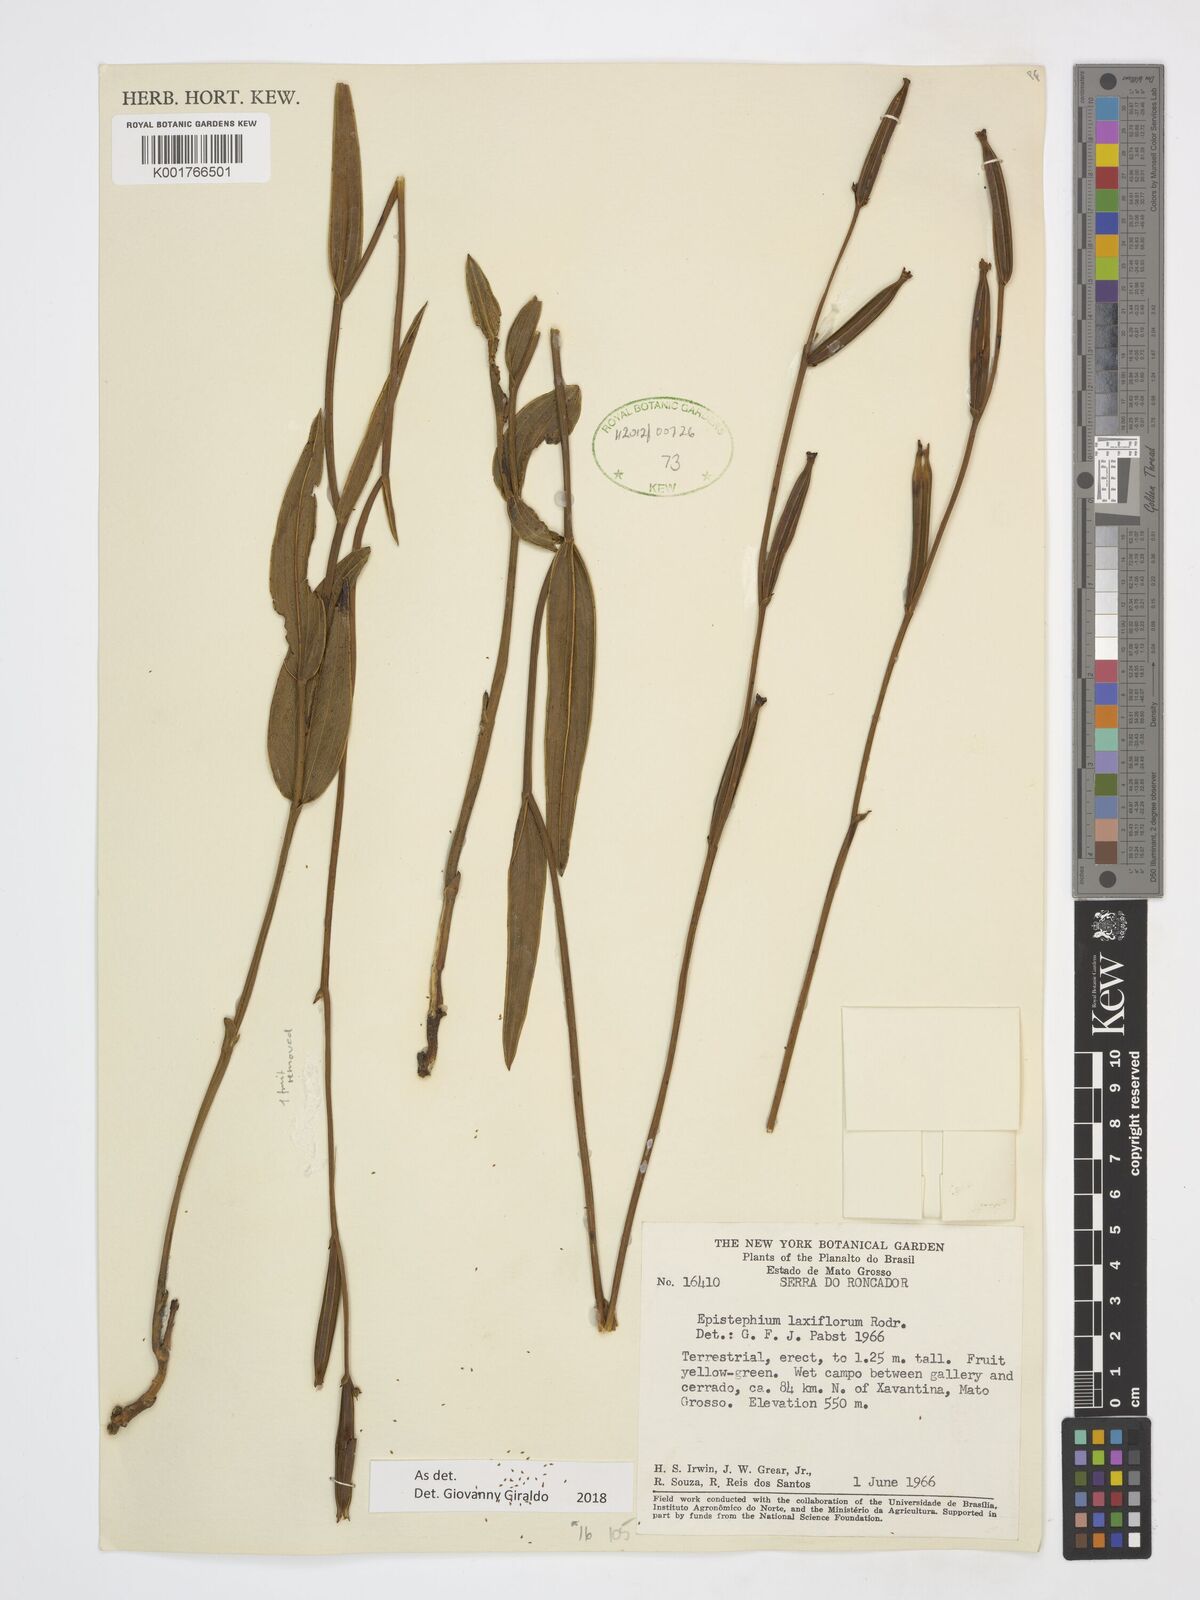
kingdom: Plantae
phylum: Tracheophyta
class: Liliopsida
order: Asparagales
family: Orchidaceae
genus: Epistephium
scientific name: Epistephium laxiflorum
